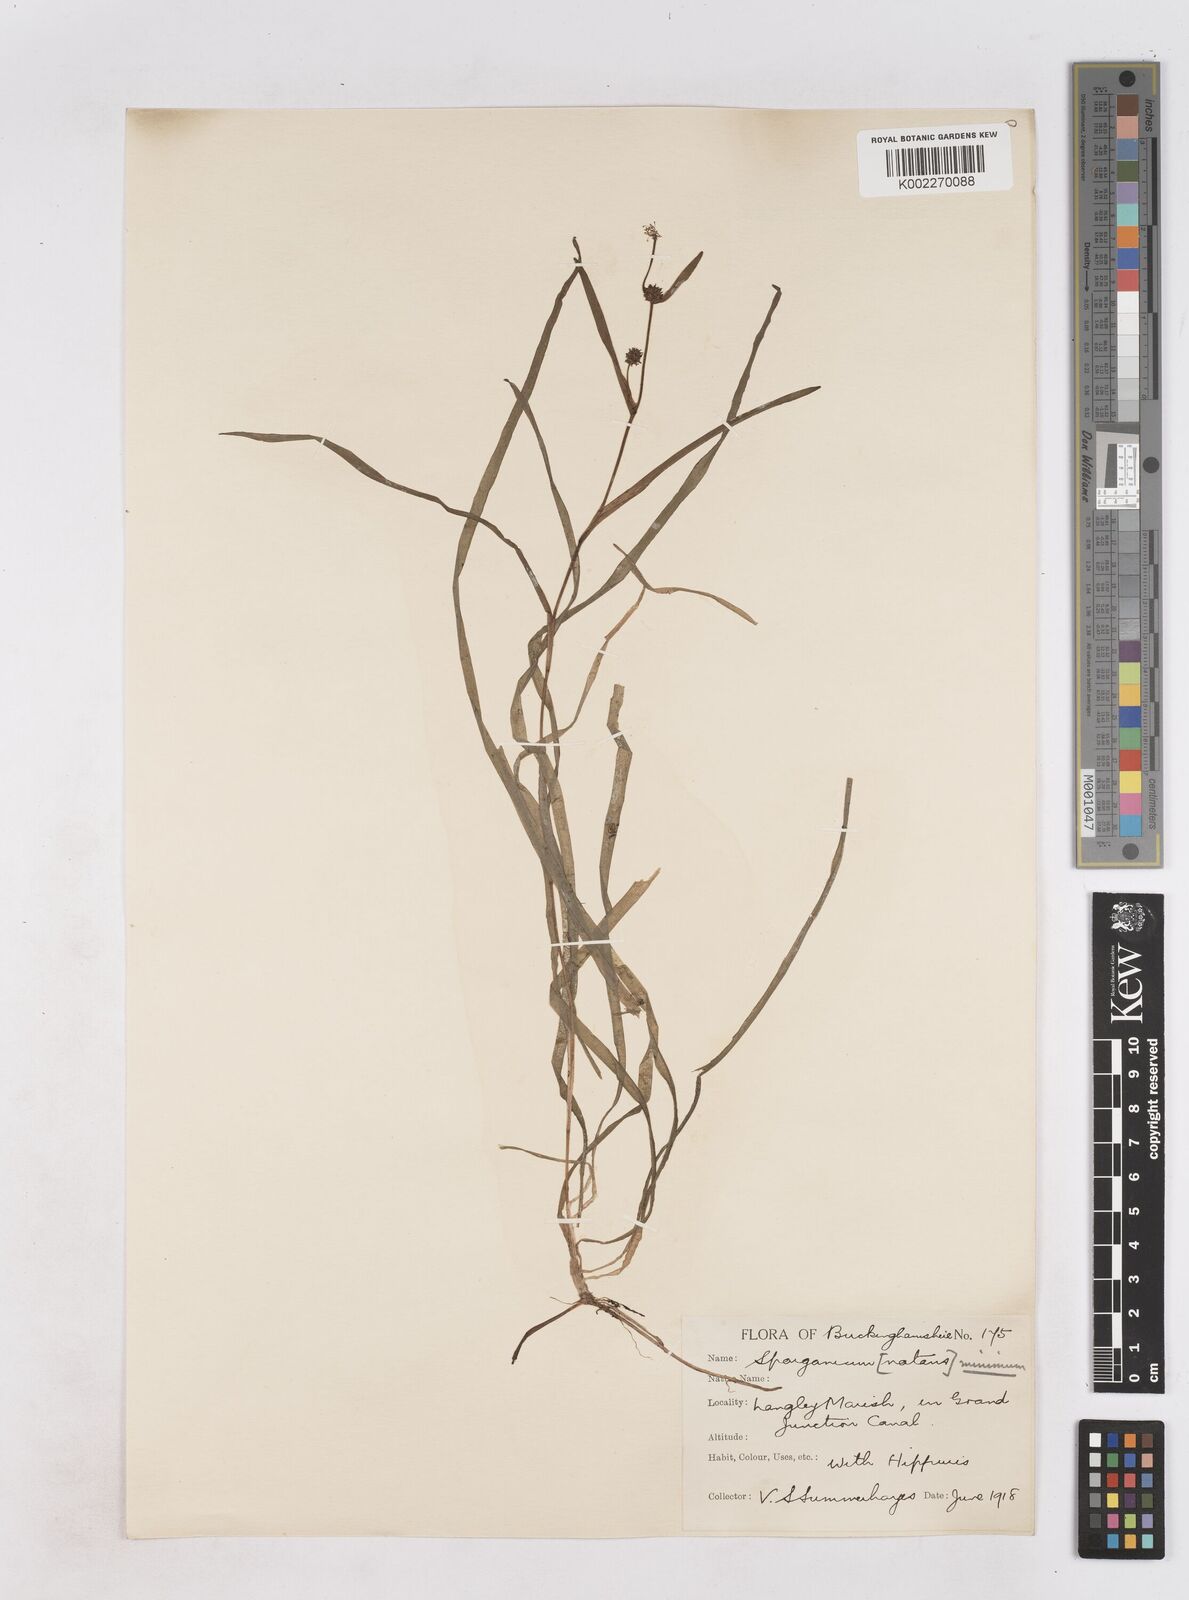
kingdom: Plantae
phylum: Tracheophyta
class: Liliopsida
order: Poales
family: Typhaceae
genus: Sparganium
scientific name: Sparganium natans
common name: Least bur-reed
